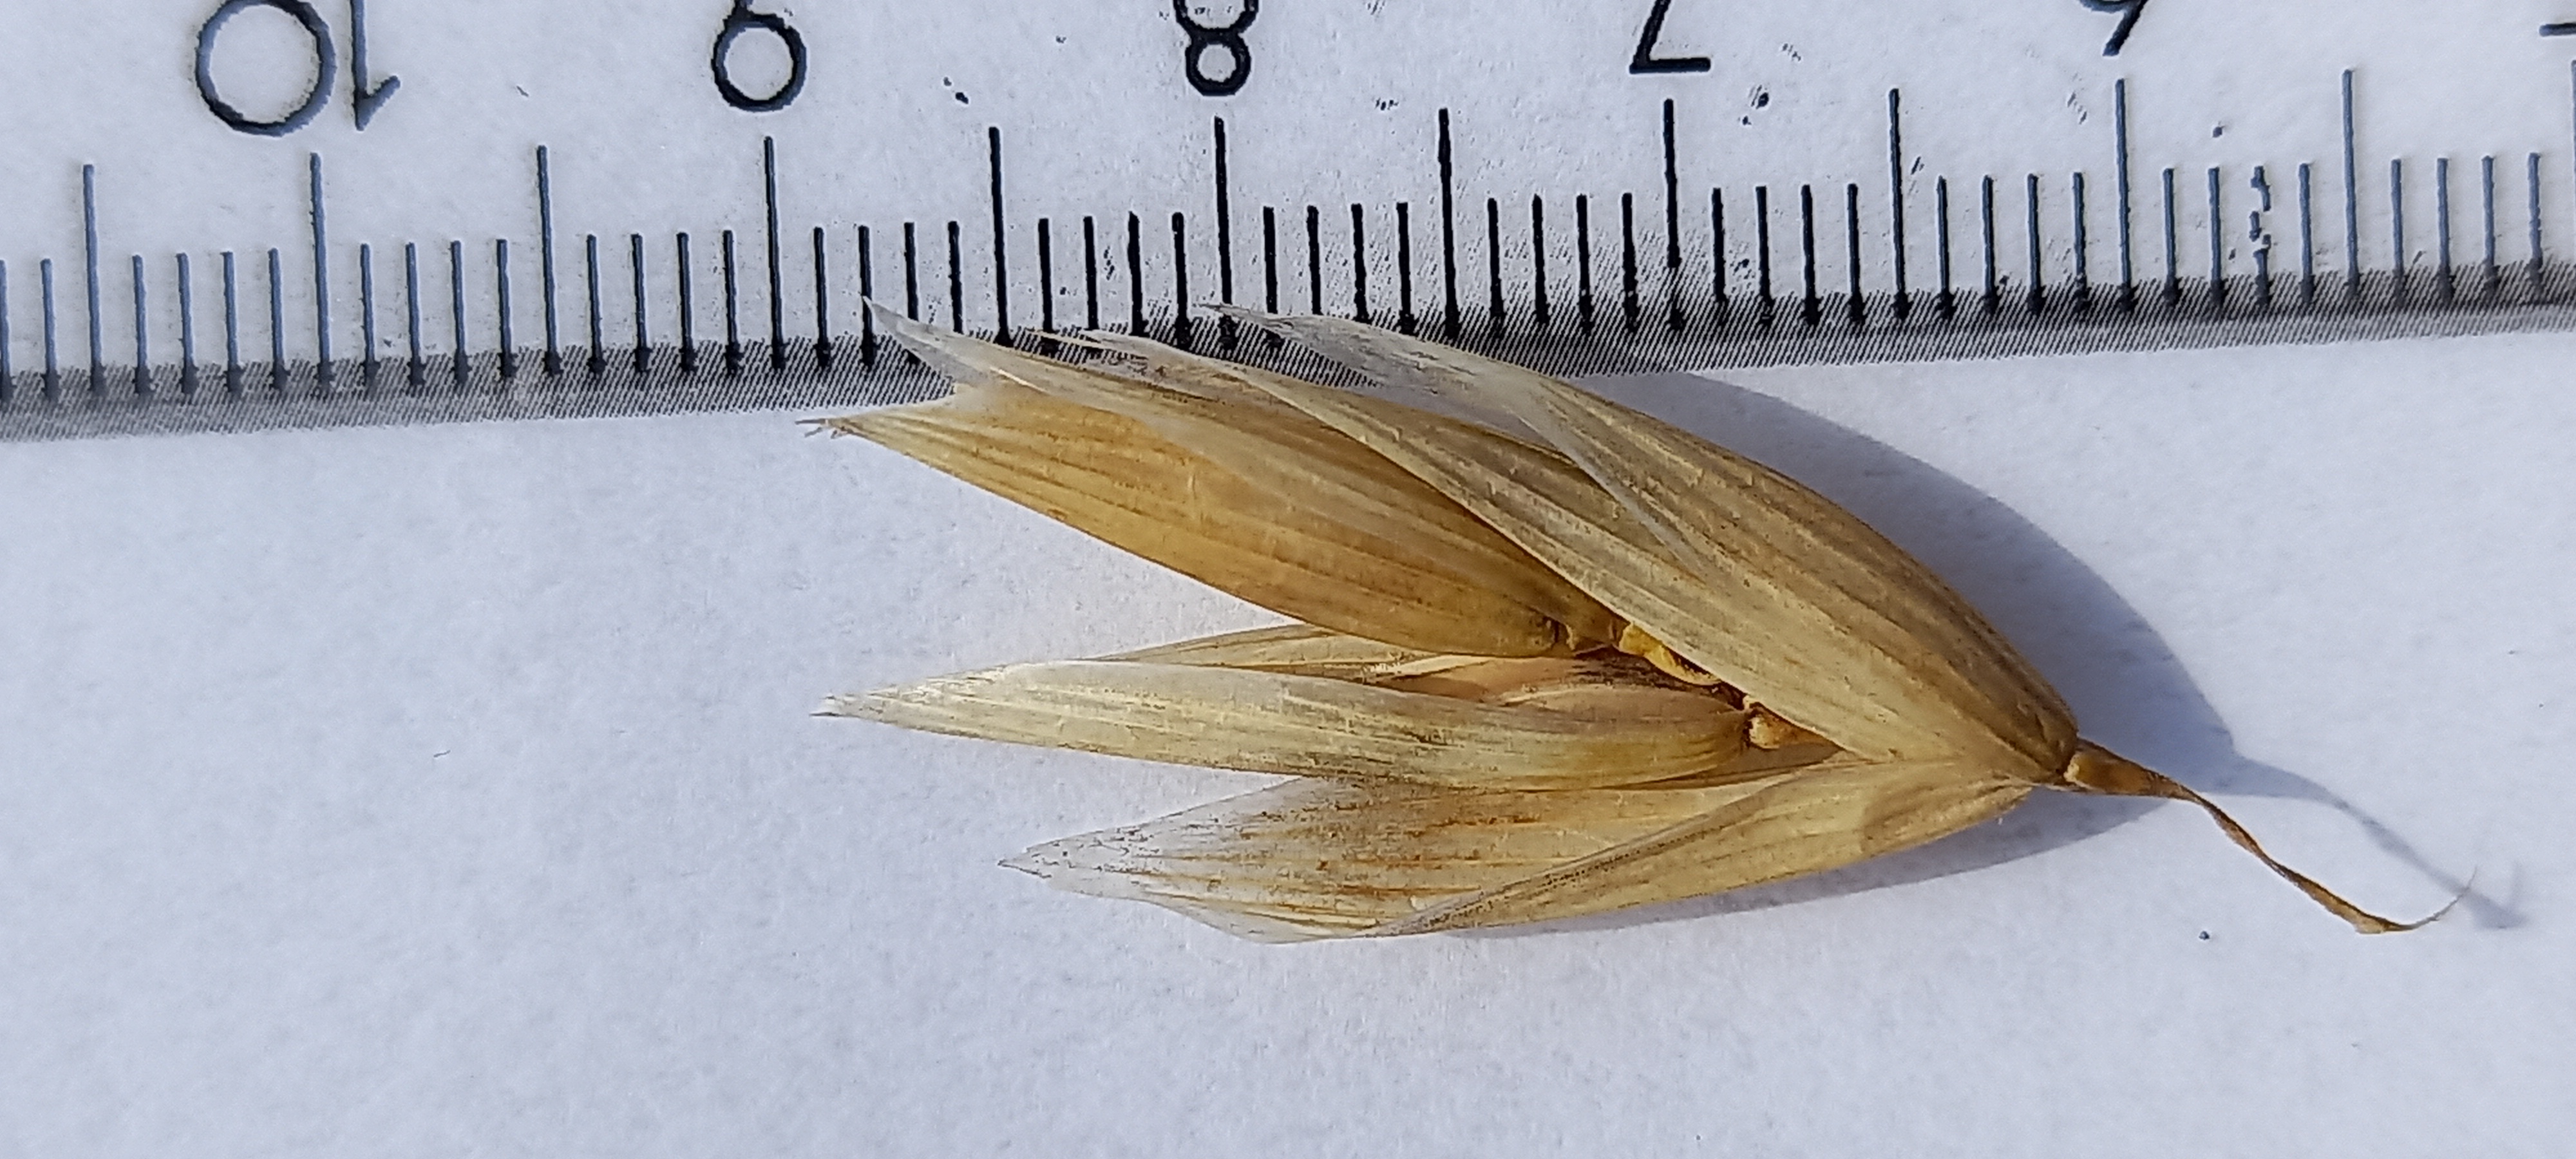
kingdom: Plantae
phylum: Tracheophyta
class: Liliopsida
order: Poales
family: Poaceae
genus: Avena
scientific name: Avena sativa
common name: Oat
